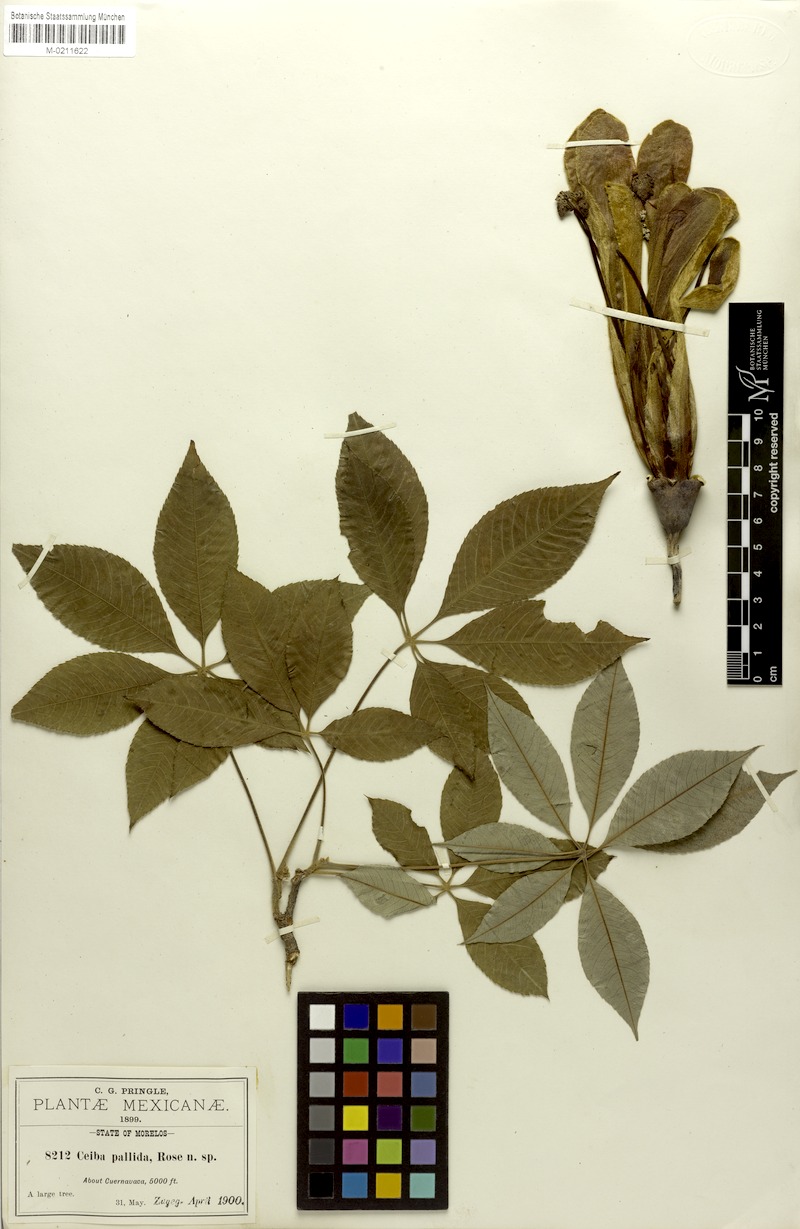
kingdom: Plantae
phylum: Tracheophyta
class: Magnoliopsida
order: Malvales
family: Malvaceae
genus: Ceiba
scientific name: Ceiba aesculifolia
